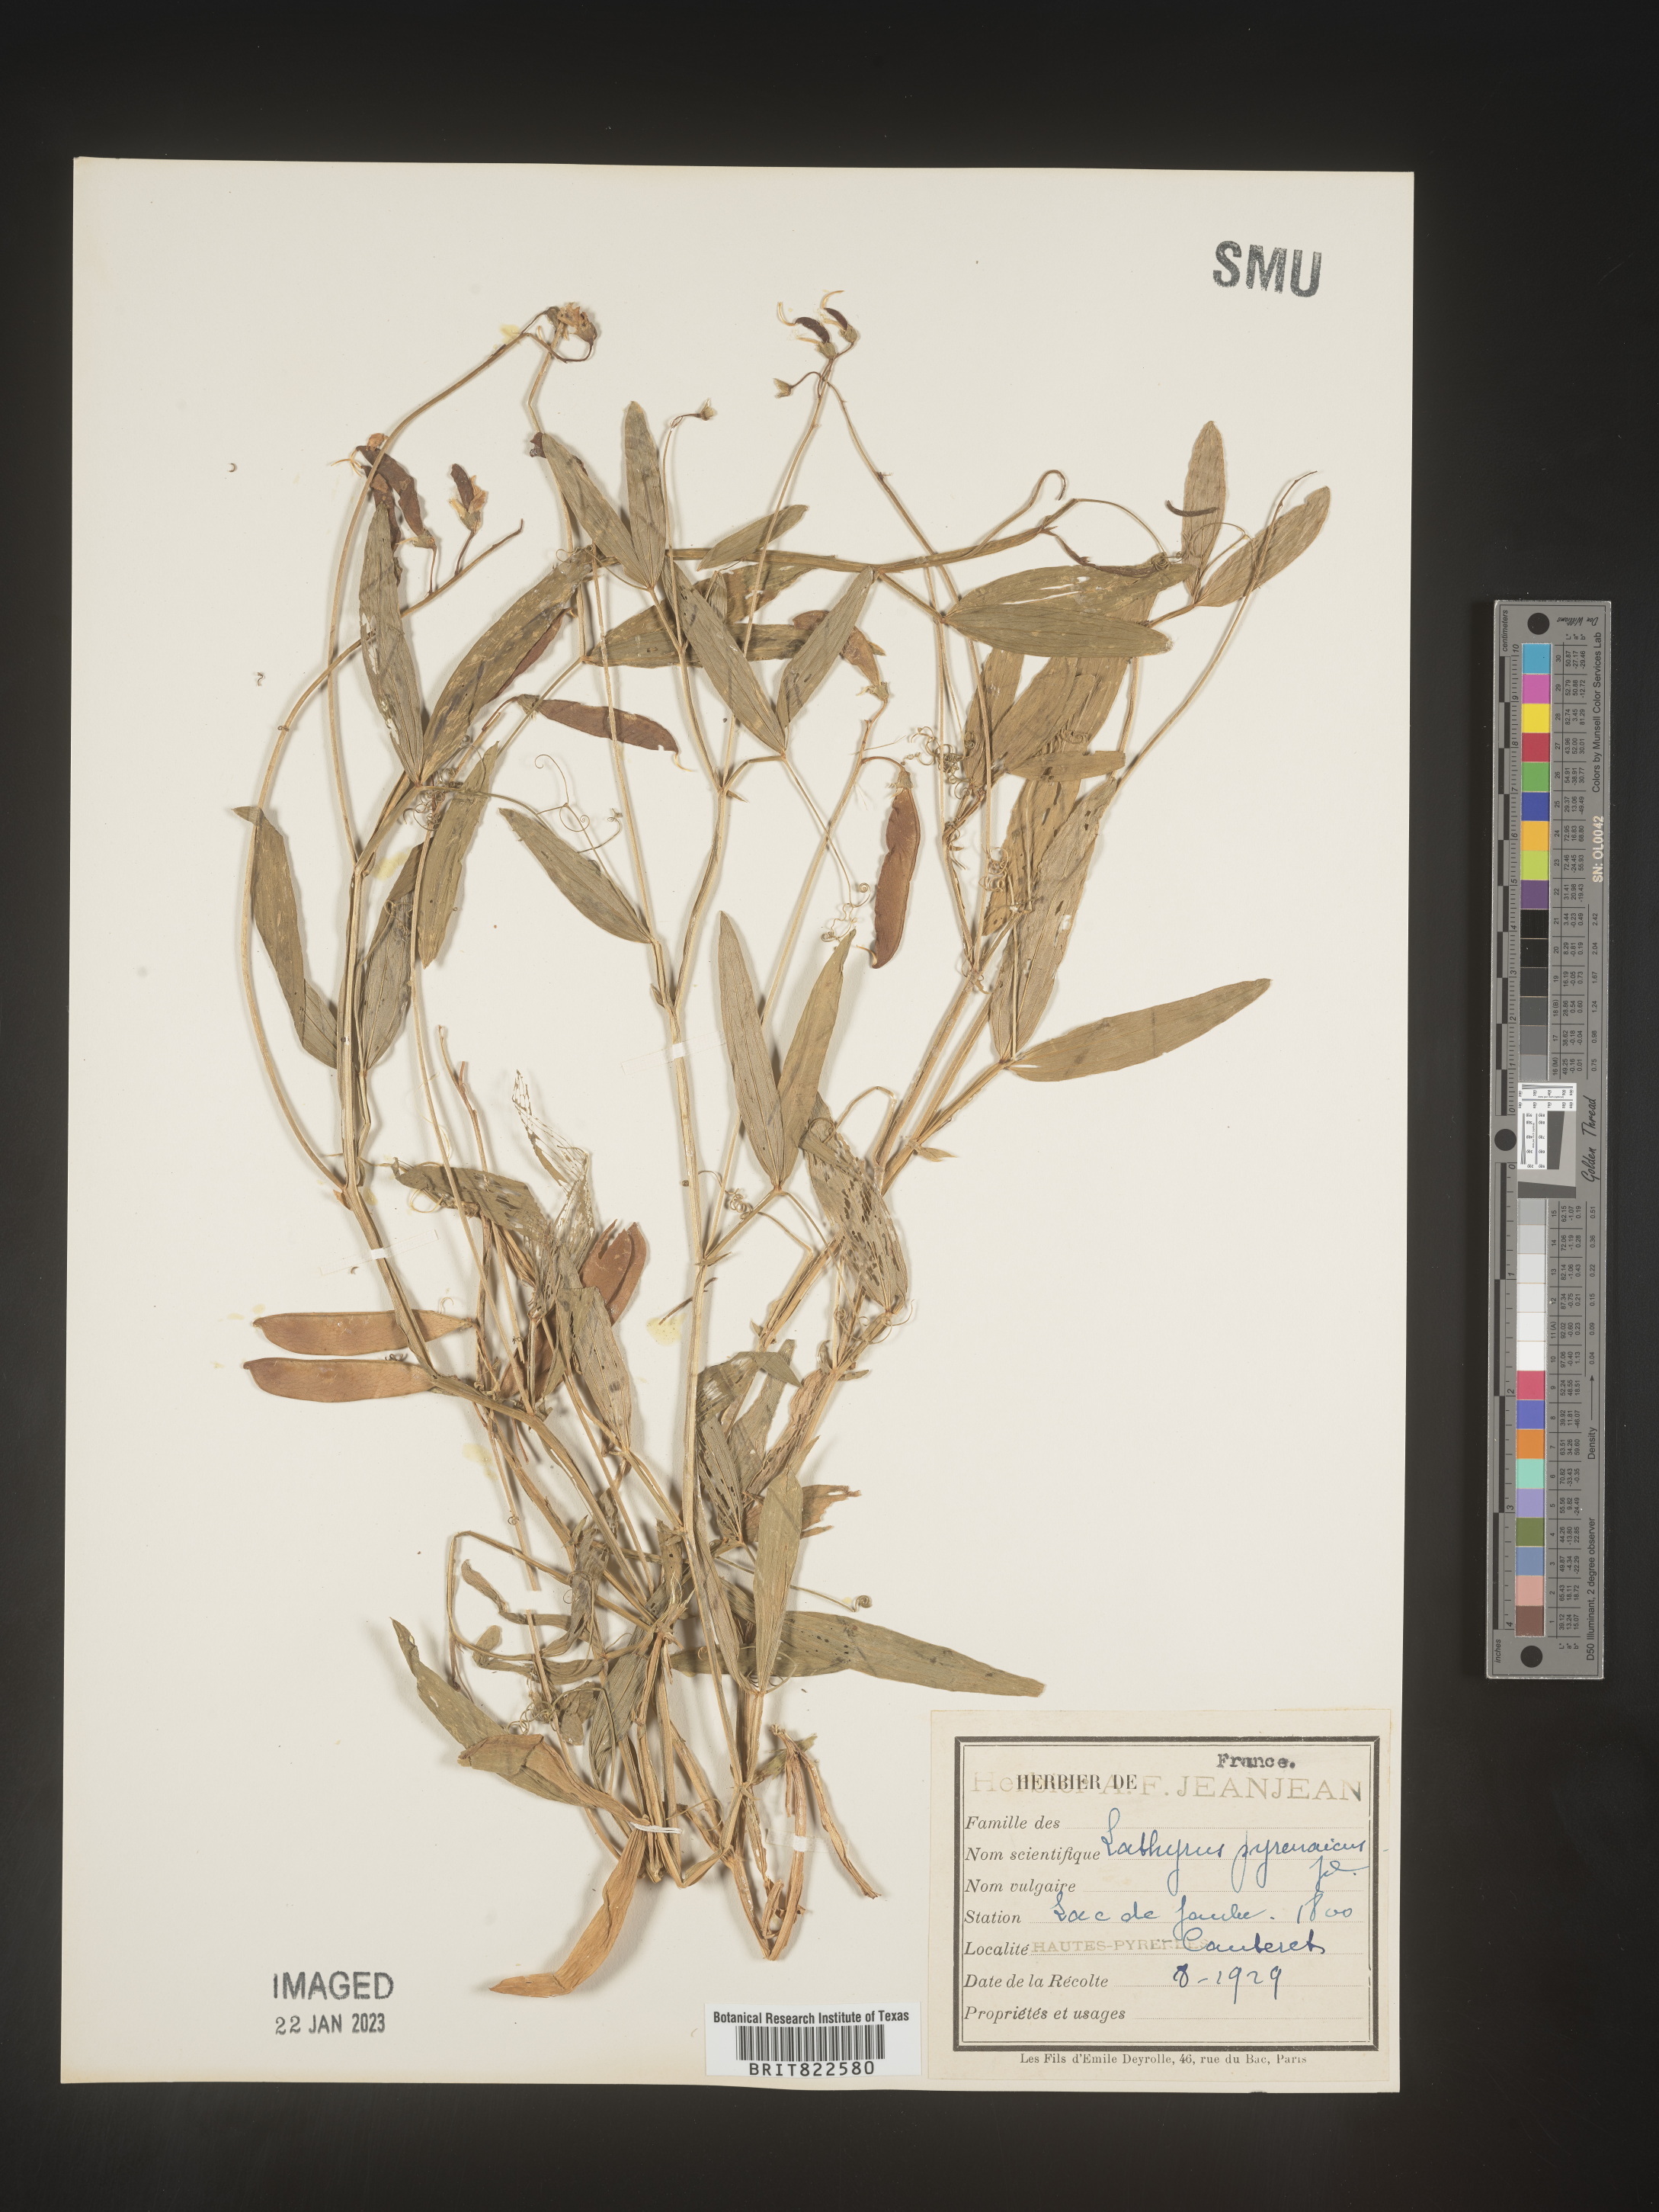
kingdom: Plantae
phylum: Tracheophyta
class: Magnoliopsida
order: Fabales
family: Fabaceae
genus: Lathyrus
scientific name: Lathyrus
